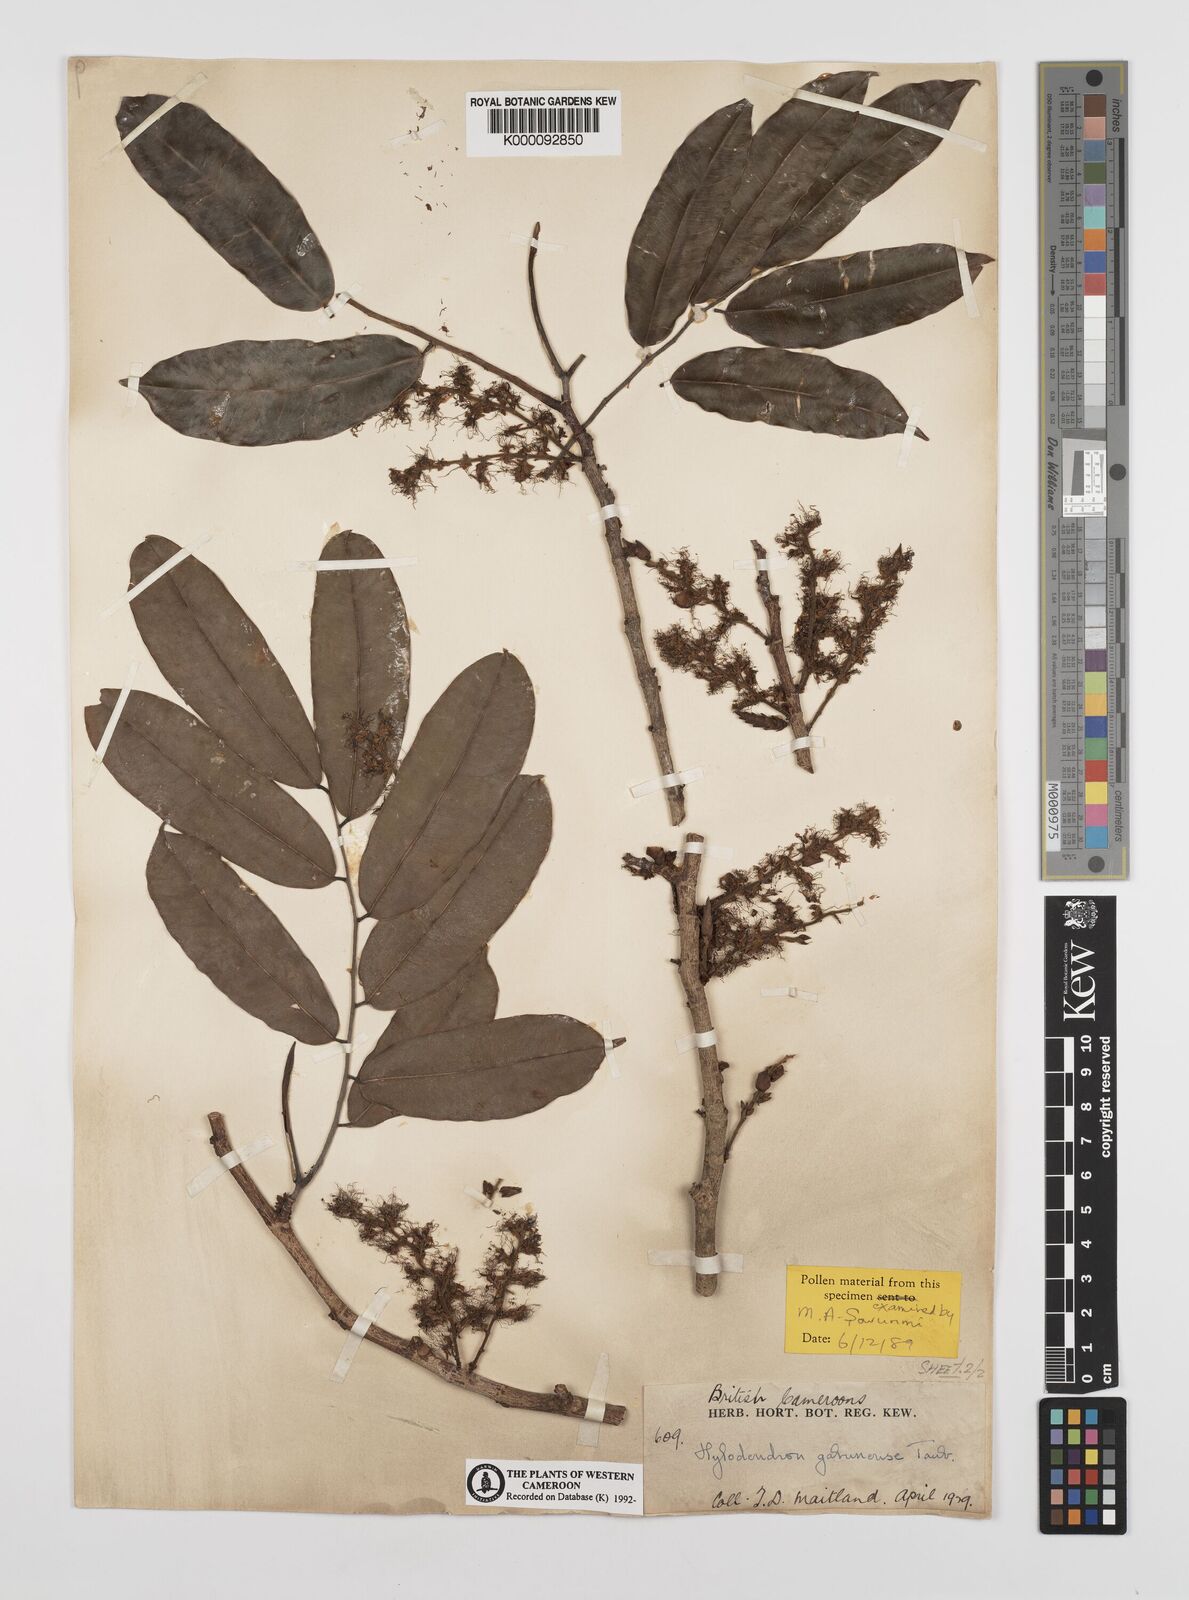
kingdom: Plantae
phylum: Tracheophyta
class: Magnoliopsida
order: Fabales
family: Fabaceae
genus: Hylodendron
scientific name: Hylodendron gabunense
